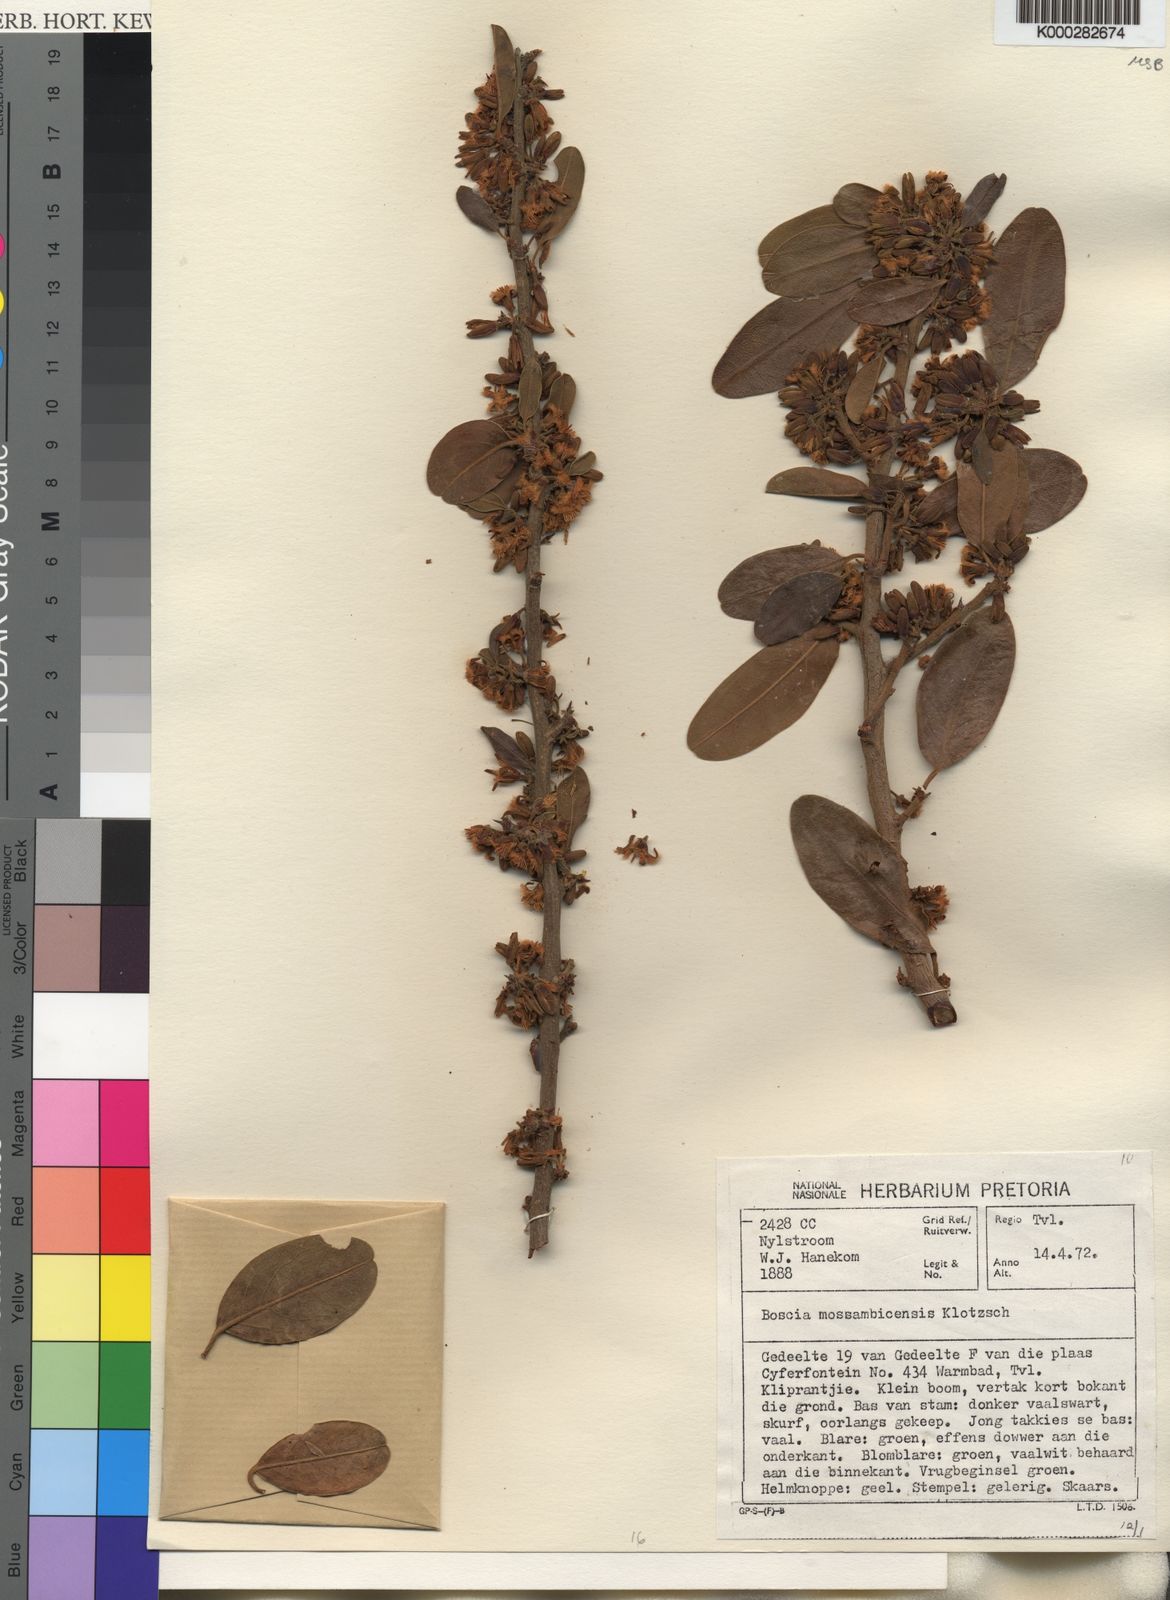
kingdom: Plantae
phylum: Tracheophyta
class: Magnoliopsida
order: Brassicales
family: Capparaceae
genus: Boscia
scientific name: Boscia mossambicensis
